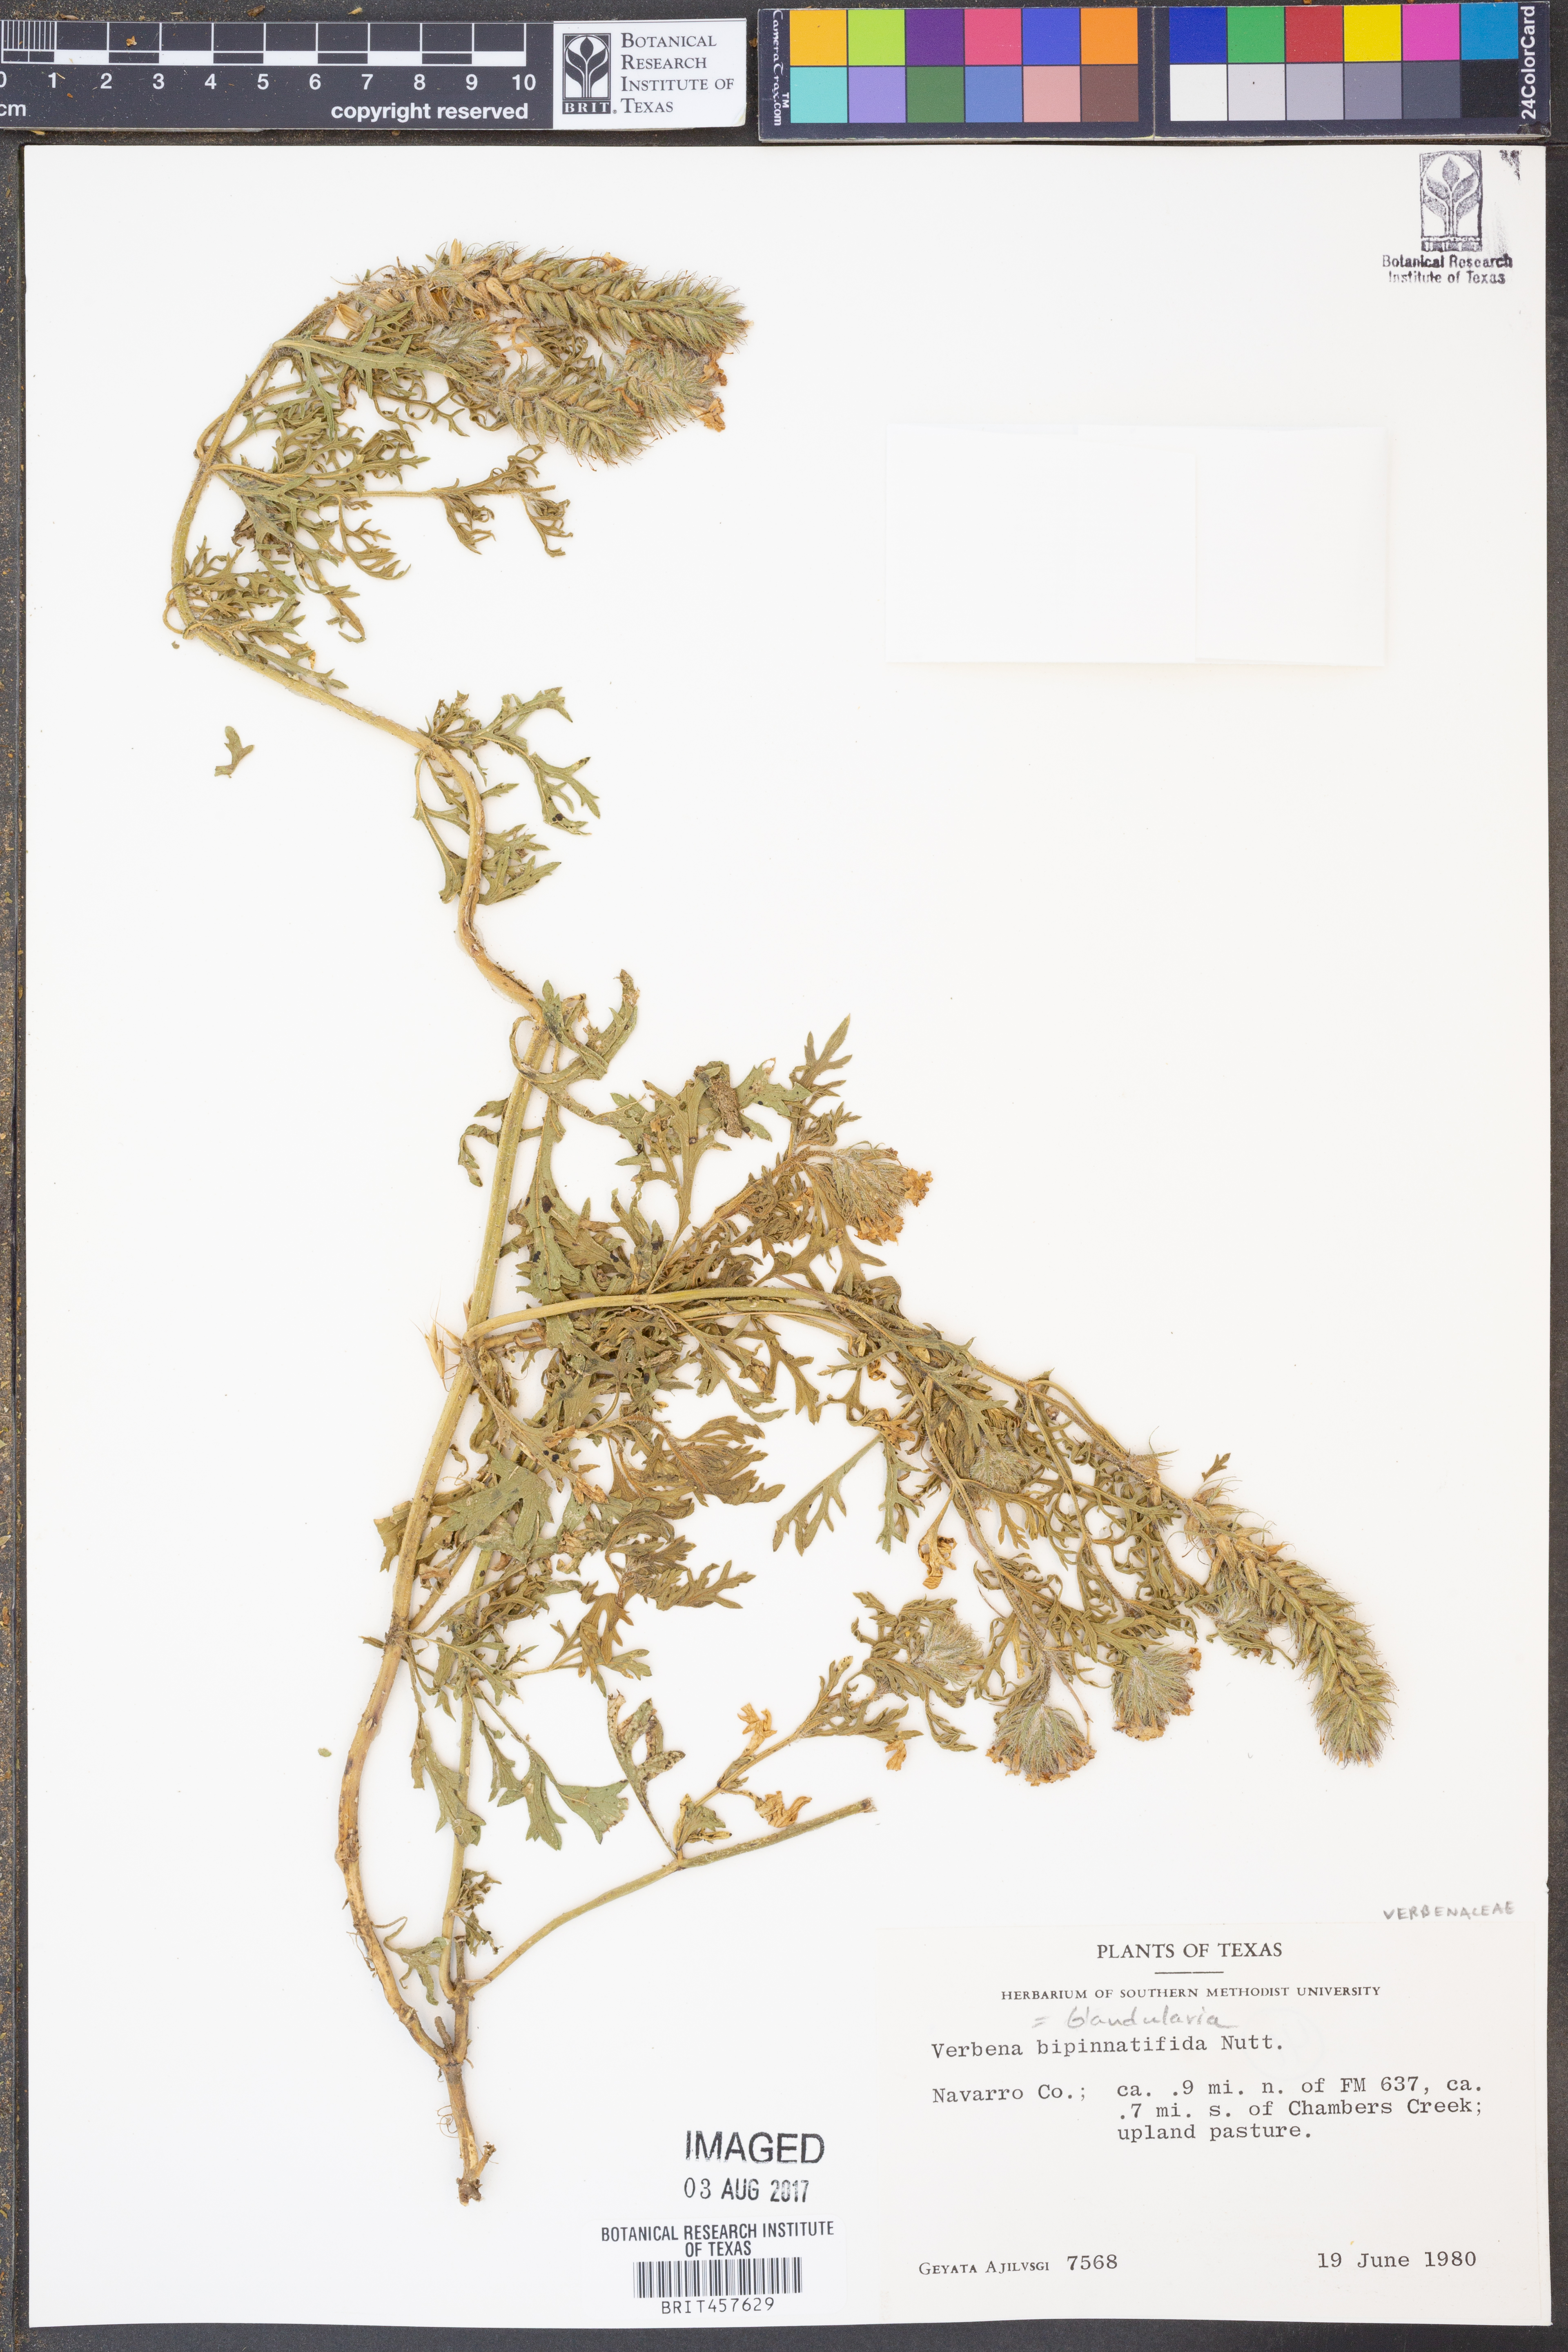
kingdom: Plantae
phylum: Tracheophyta
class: Magnoliopsida
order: Lamiales
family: Verbenaceae
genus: Verbena
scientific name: Verbena bipinnatifida
